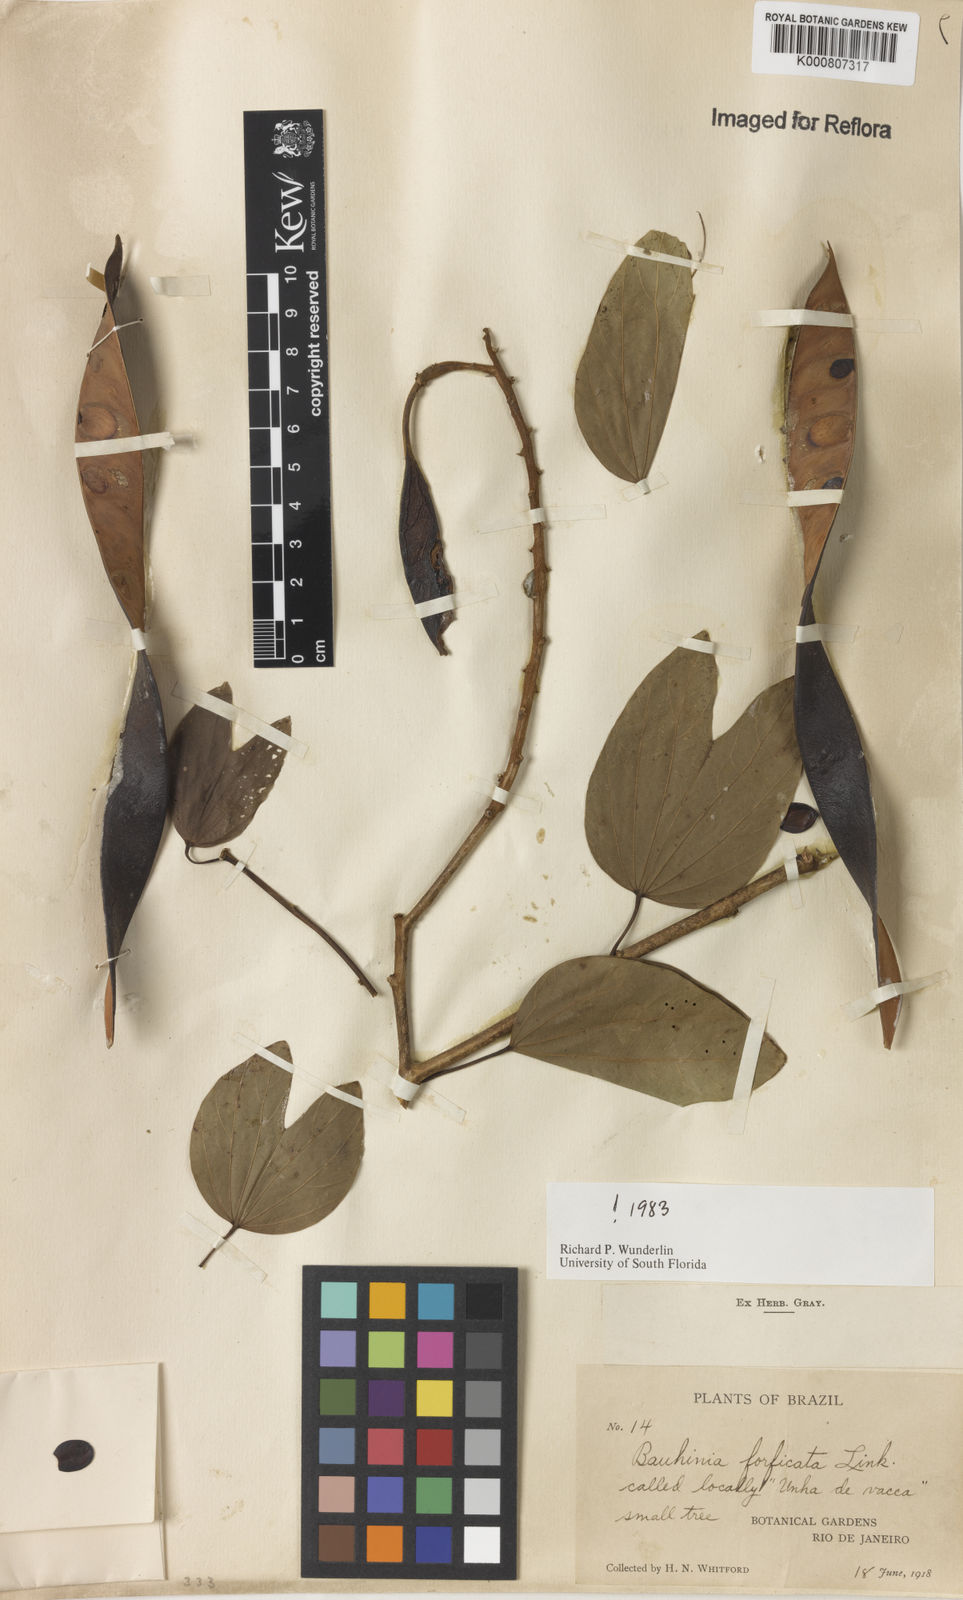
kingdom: Plantae
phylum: Tracheophyta
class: Magnoliopsida
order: Fabales
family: Fabaceae
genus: Bauhinia
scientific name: Bauhinia forficata
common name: Orchid tree
